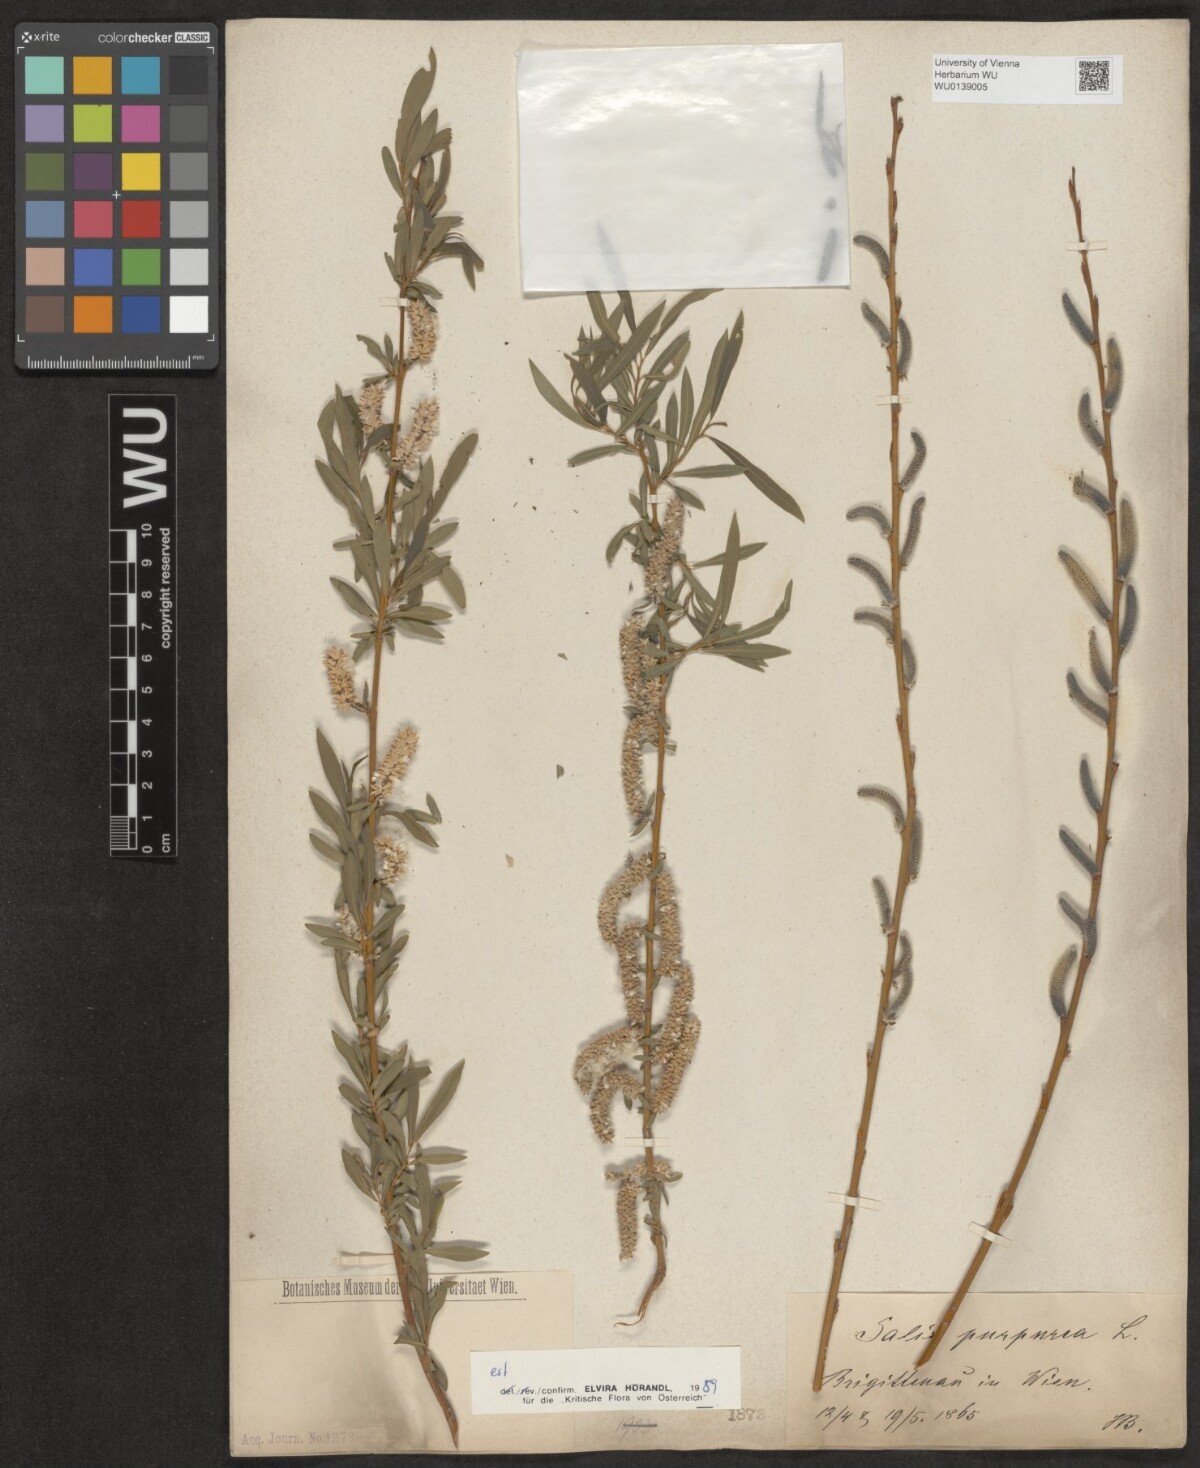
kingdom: Plantae
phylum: Tracheophyta
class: Magnoliopsida
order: Malpighiales
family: Salicaceae
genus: Salix
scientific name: Salix purpurea
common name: Purple willow
